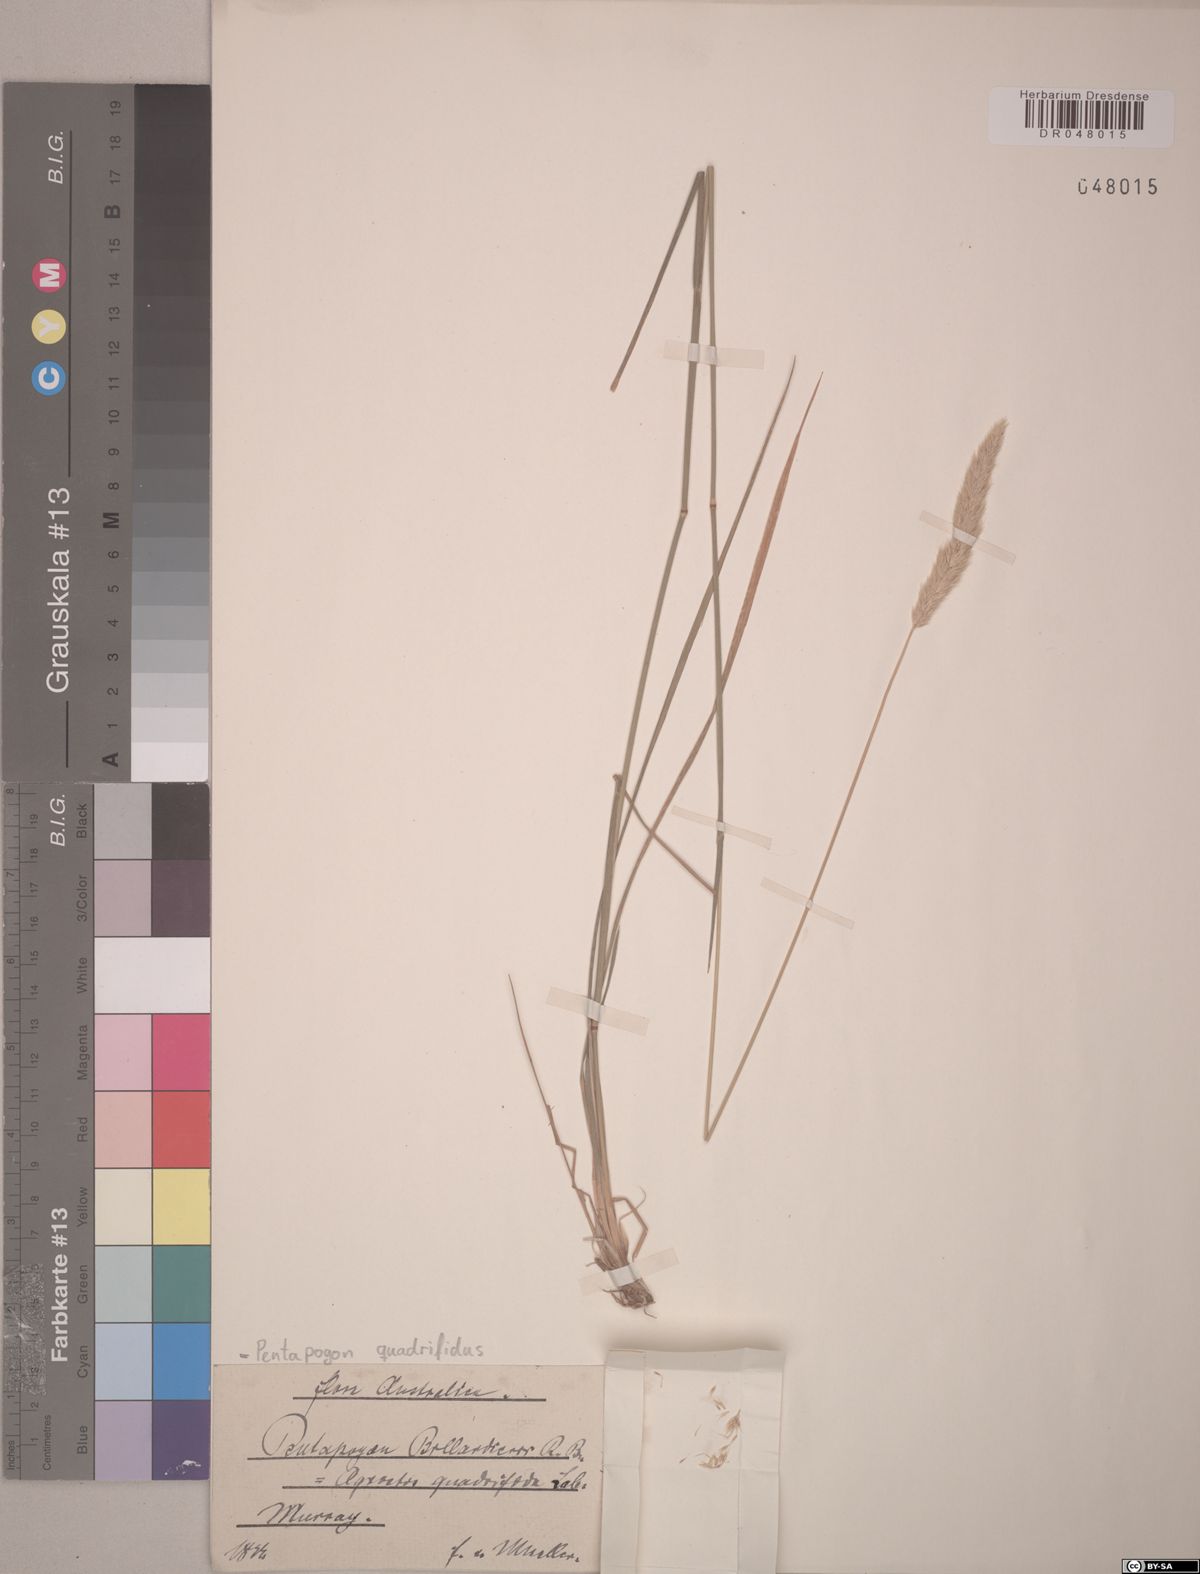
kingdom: Plantae
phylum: Tracheophyta
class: Liliopsida
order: Poales
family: Poaceae
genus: Calamagrostis
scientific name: Calamagrostis quadriseta
